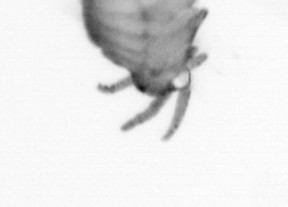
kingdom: Animalia
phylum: Arthropoda
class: Copepoda
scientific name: Copepoda
